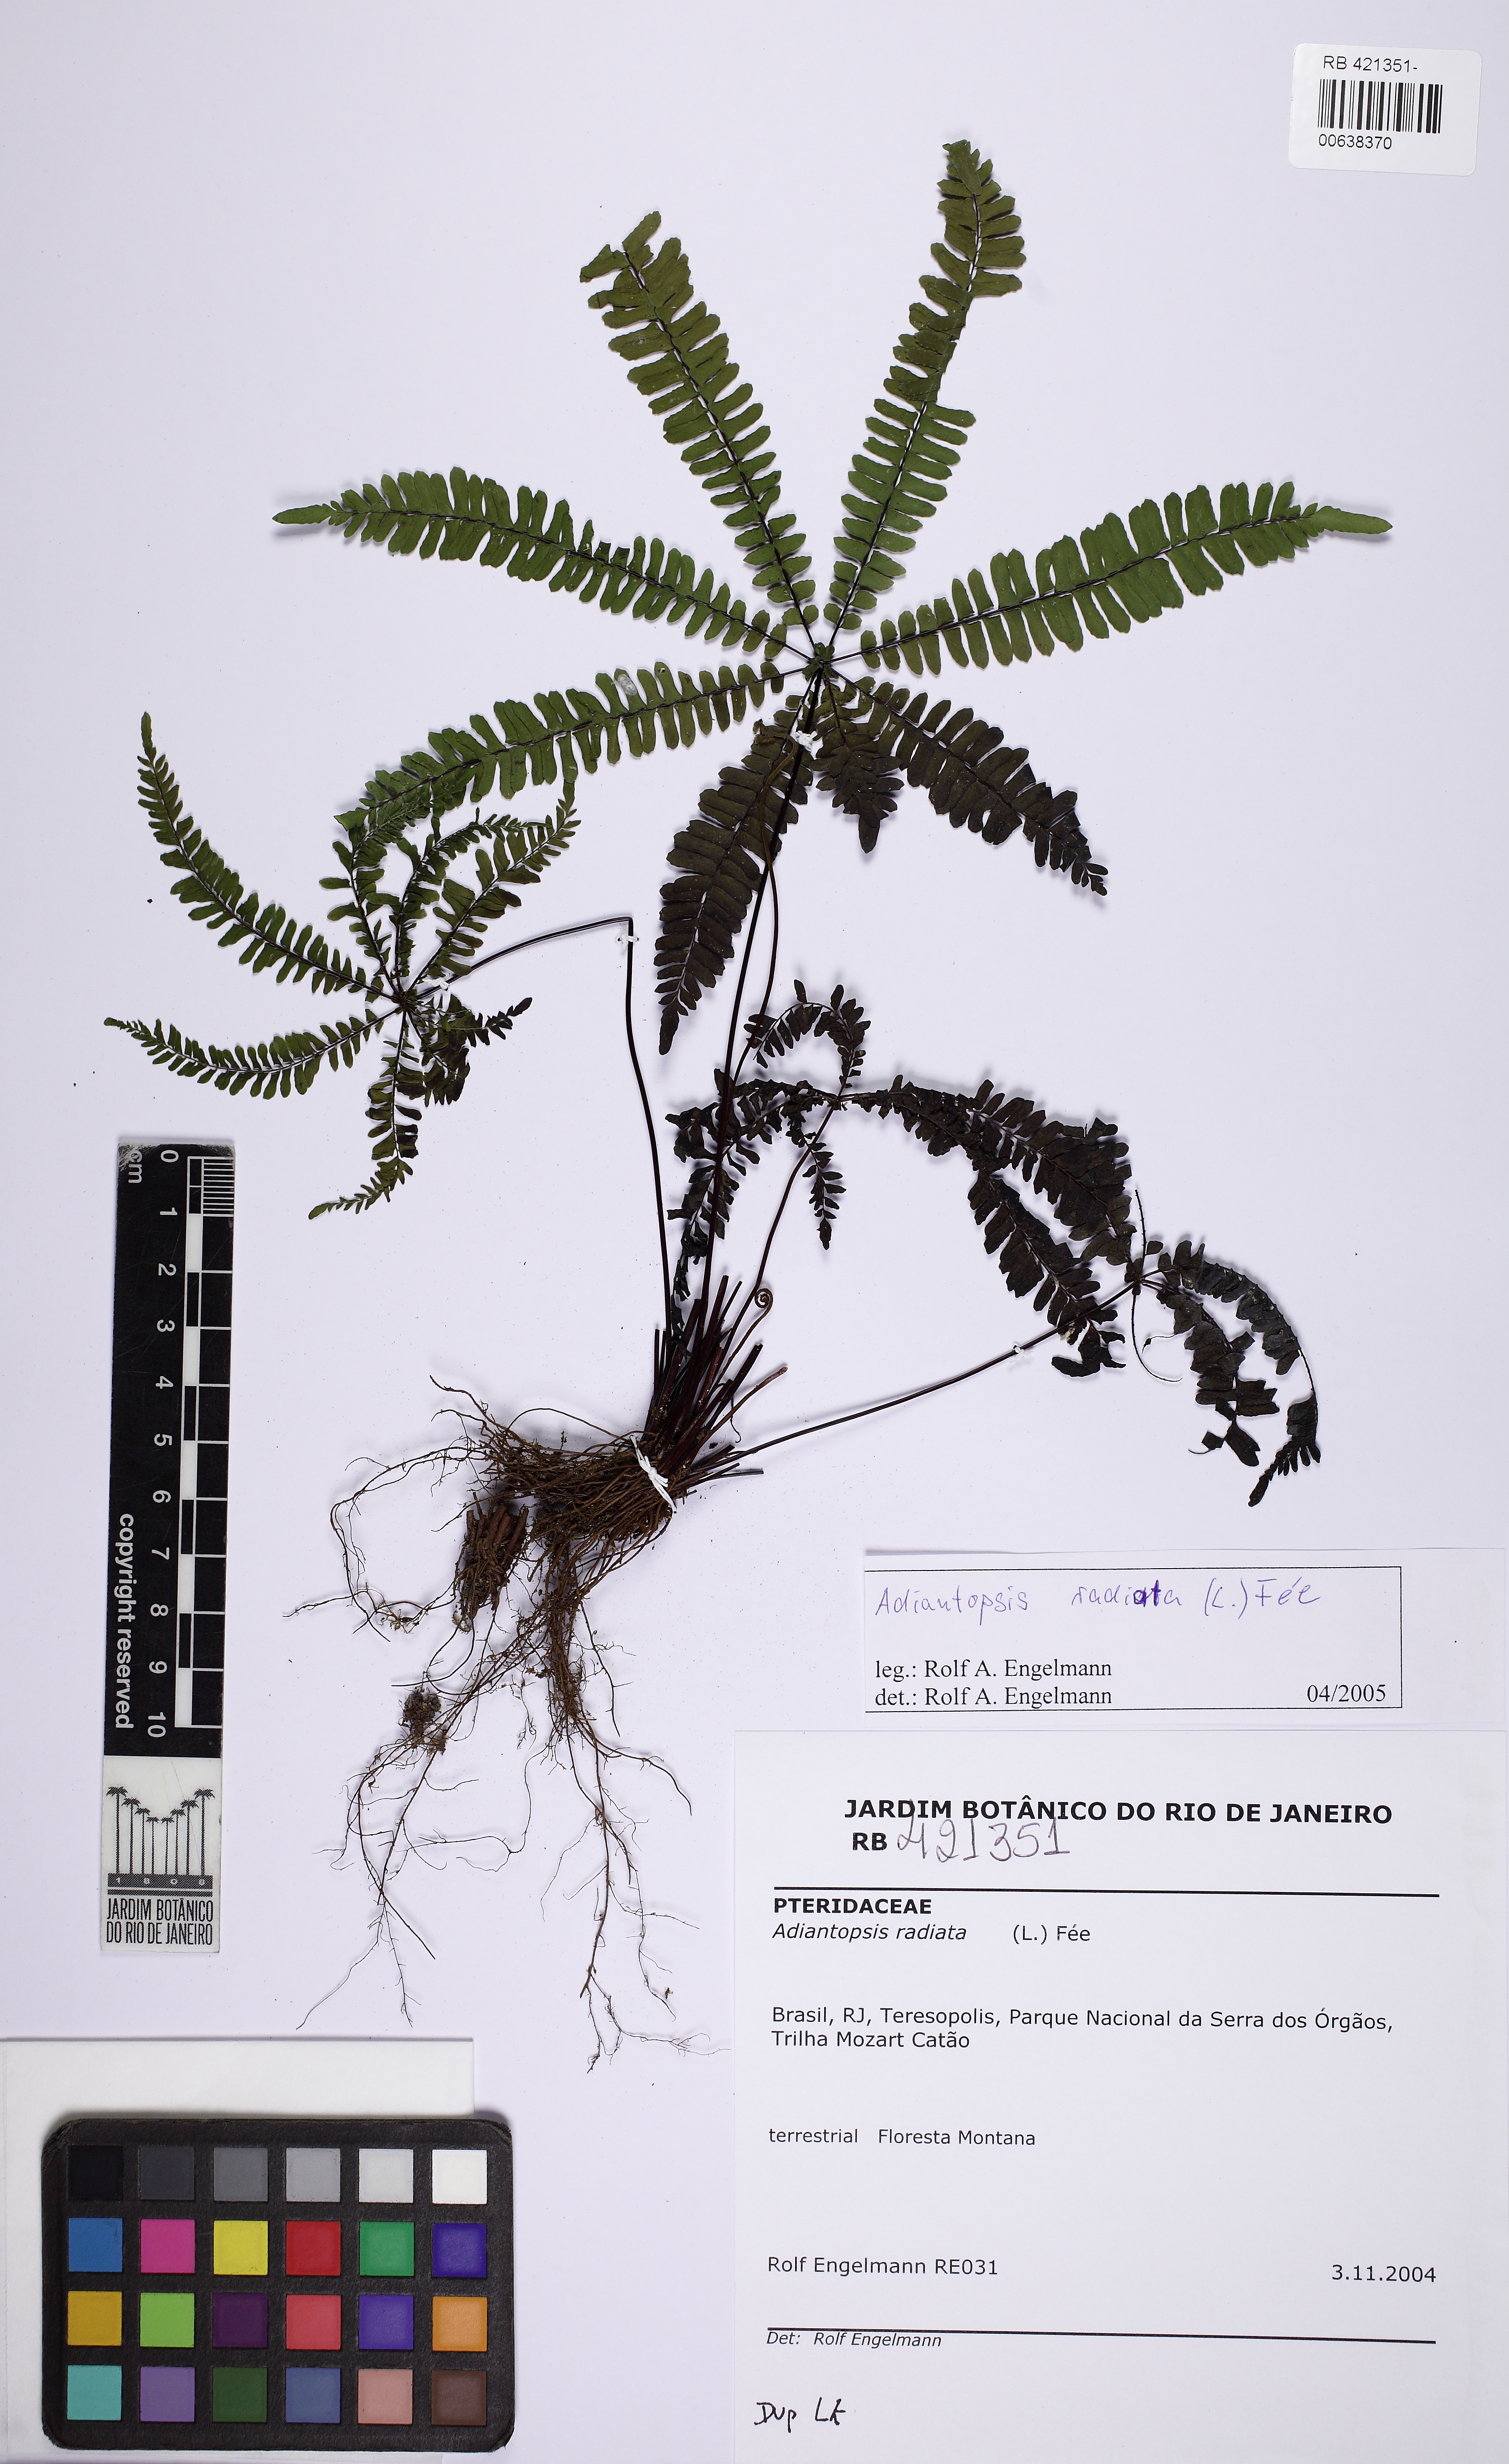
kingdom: Plantae
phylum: Tracheophyta
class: Polypodiopsida
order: Polypodiales
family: Pteridaceae
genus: Adiantopsis
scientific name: Adiantopsis radiata
